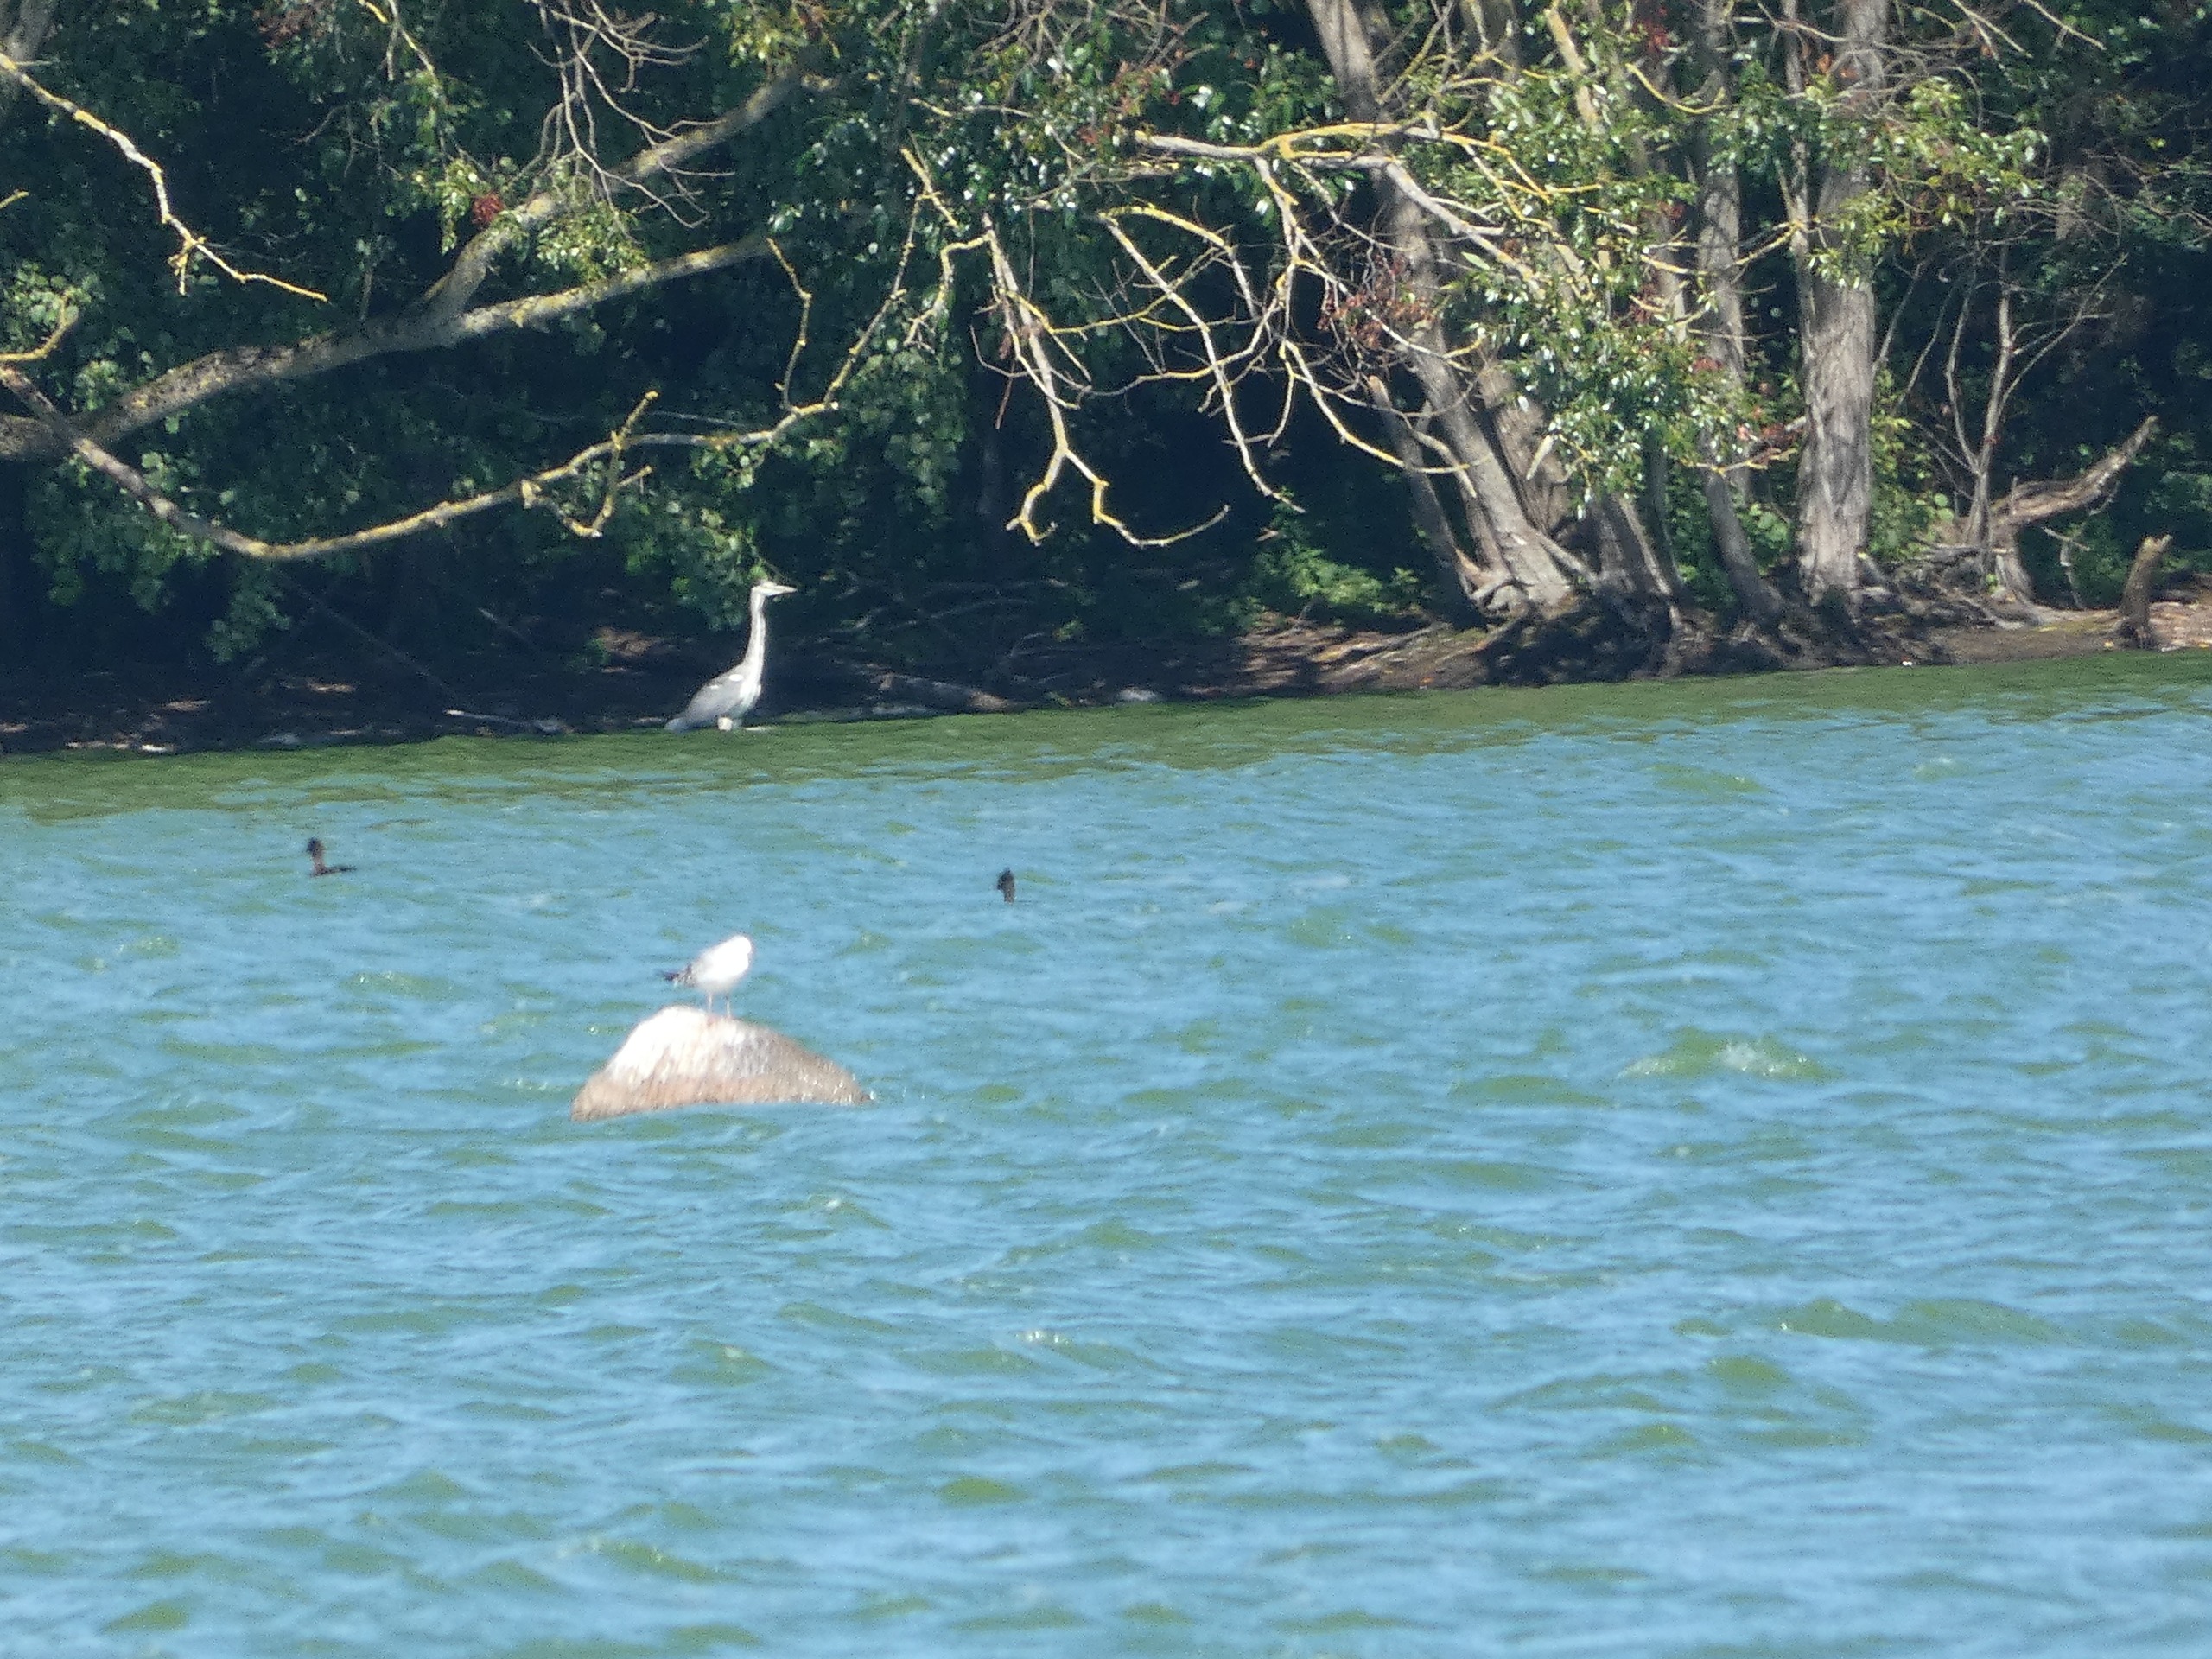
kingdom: Animalia
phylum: Chordata
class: Aves
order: Pelecaniformes
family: Ardeidae
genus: Ardea
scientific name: Ardea cinerea
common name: Fiskehejre
